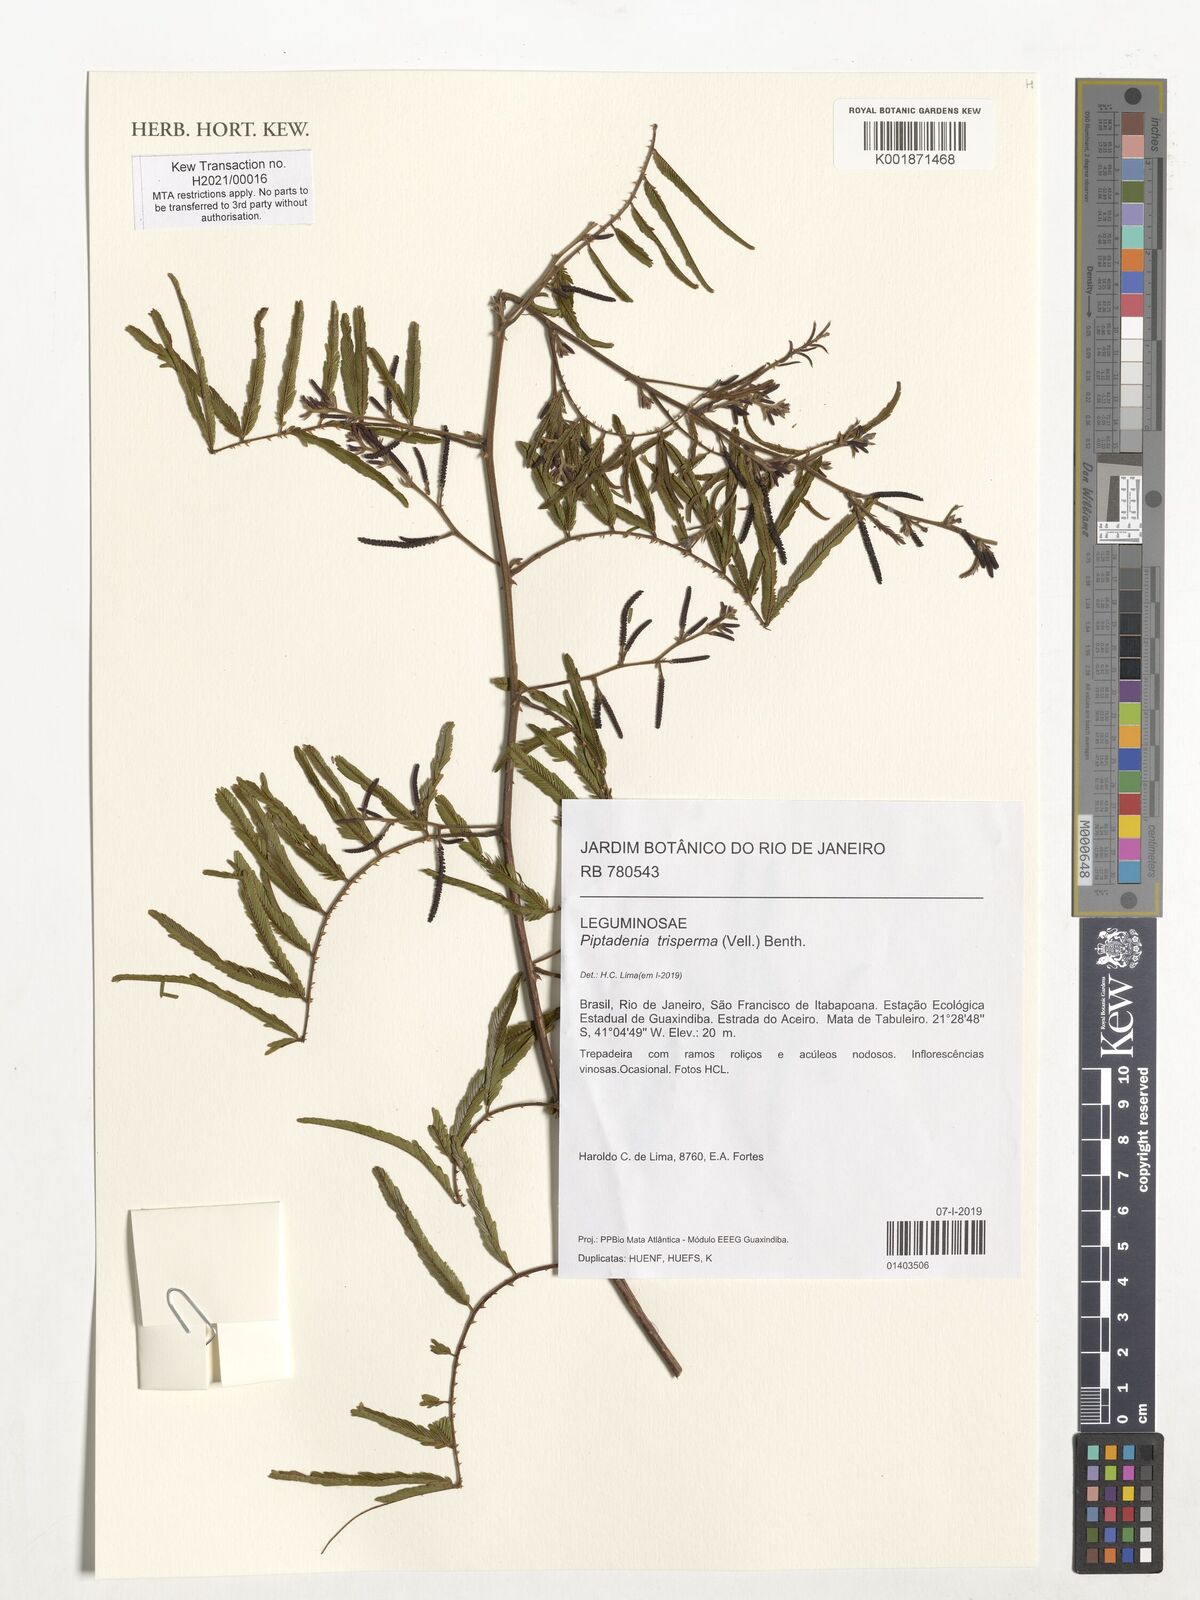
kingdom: Plantae
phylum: Tracheophyta
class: Magnoliopsida
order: Fabales
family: Fabaceae
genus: Piptadenia
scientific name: Piptadenia trisperma
